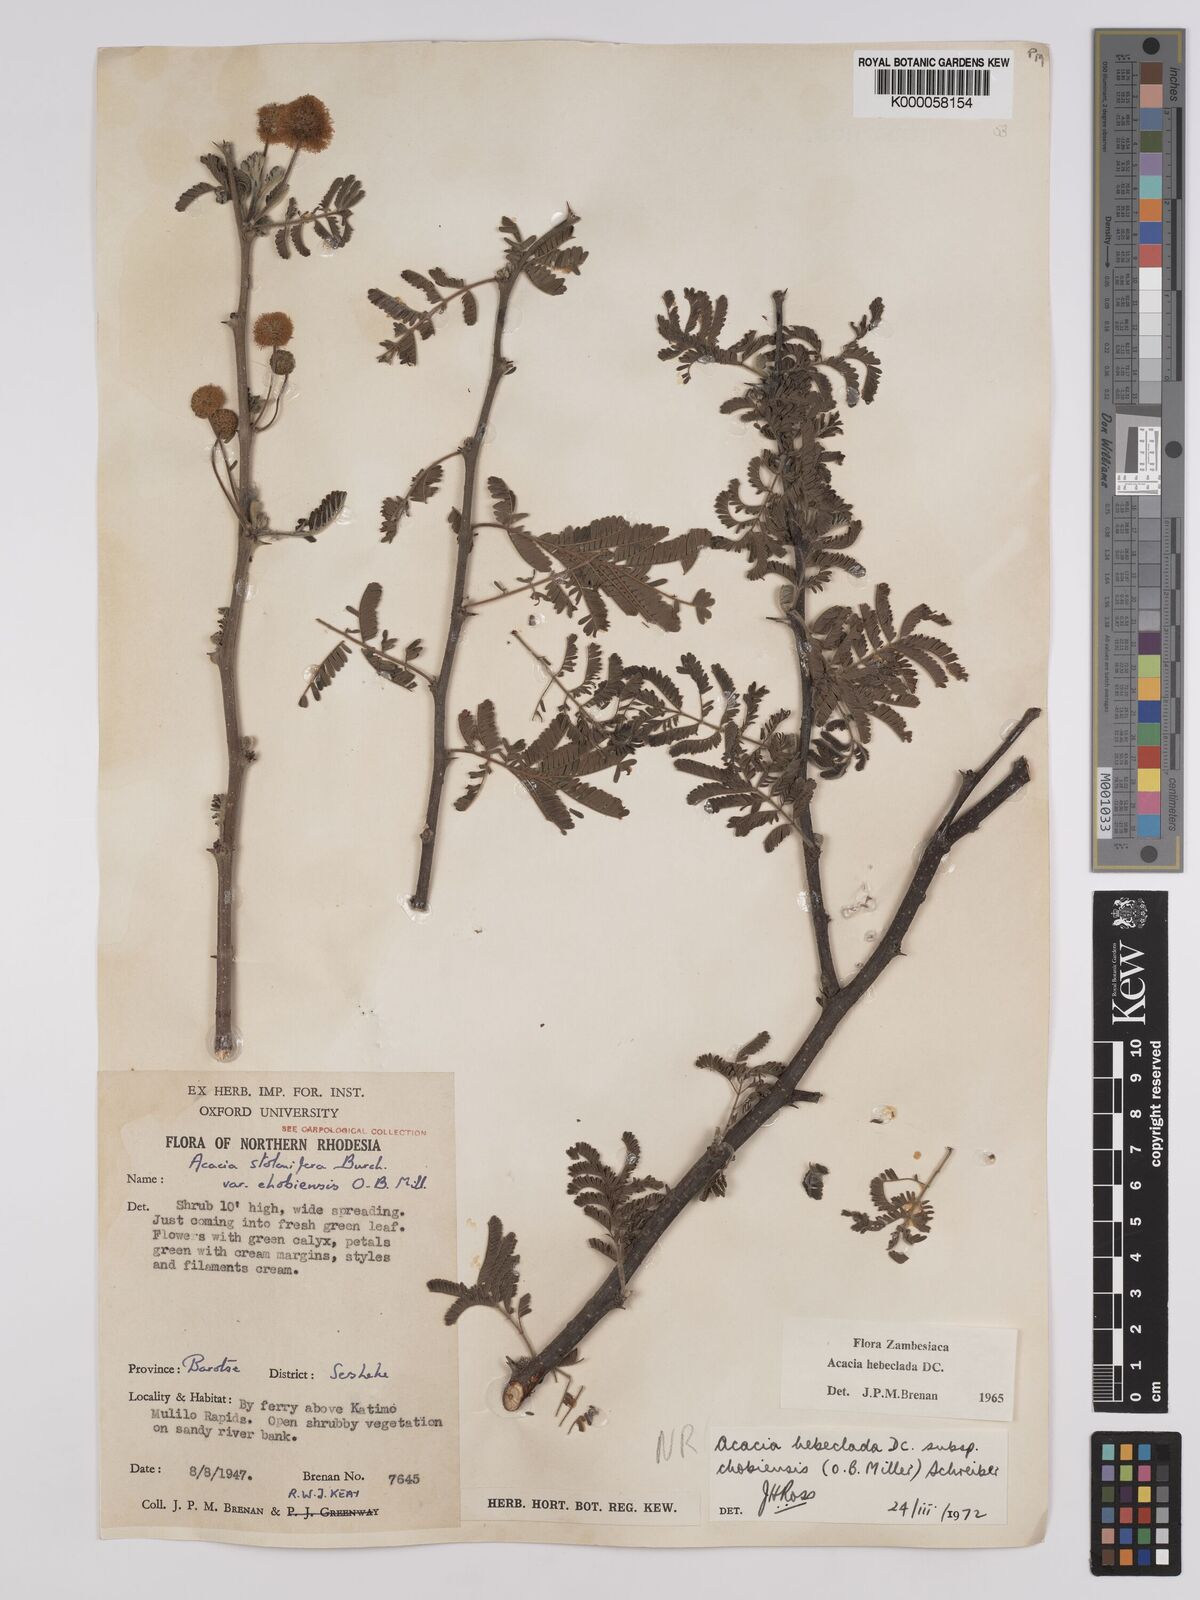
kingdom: Plantae
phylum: Tracheophyta
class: Magnoliopsida
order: Fabales
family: Fabaceae
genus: Vachellia
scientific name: Vachellia hebeclada
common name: Candle thorn
